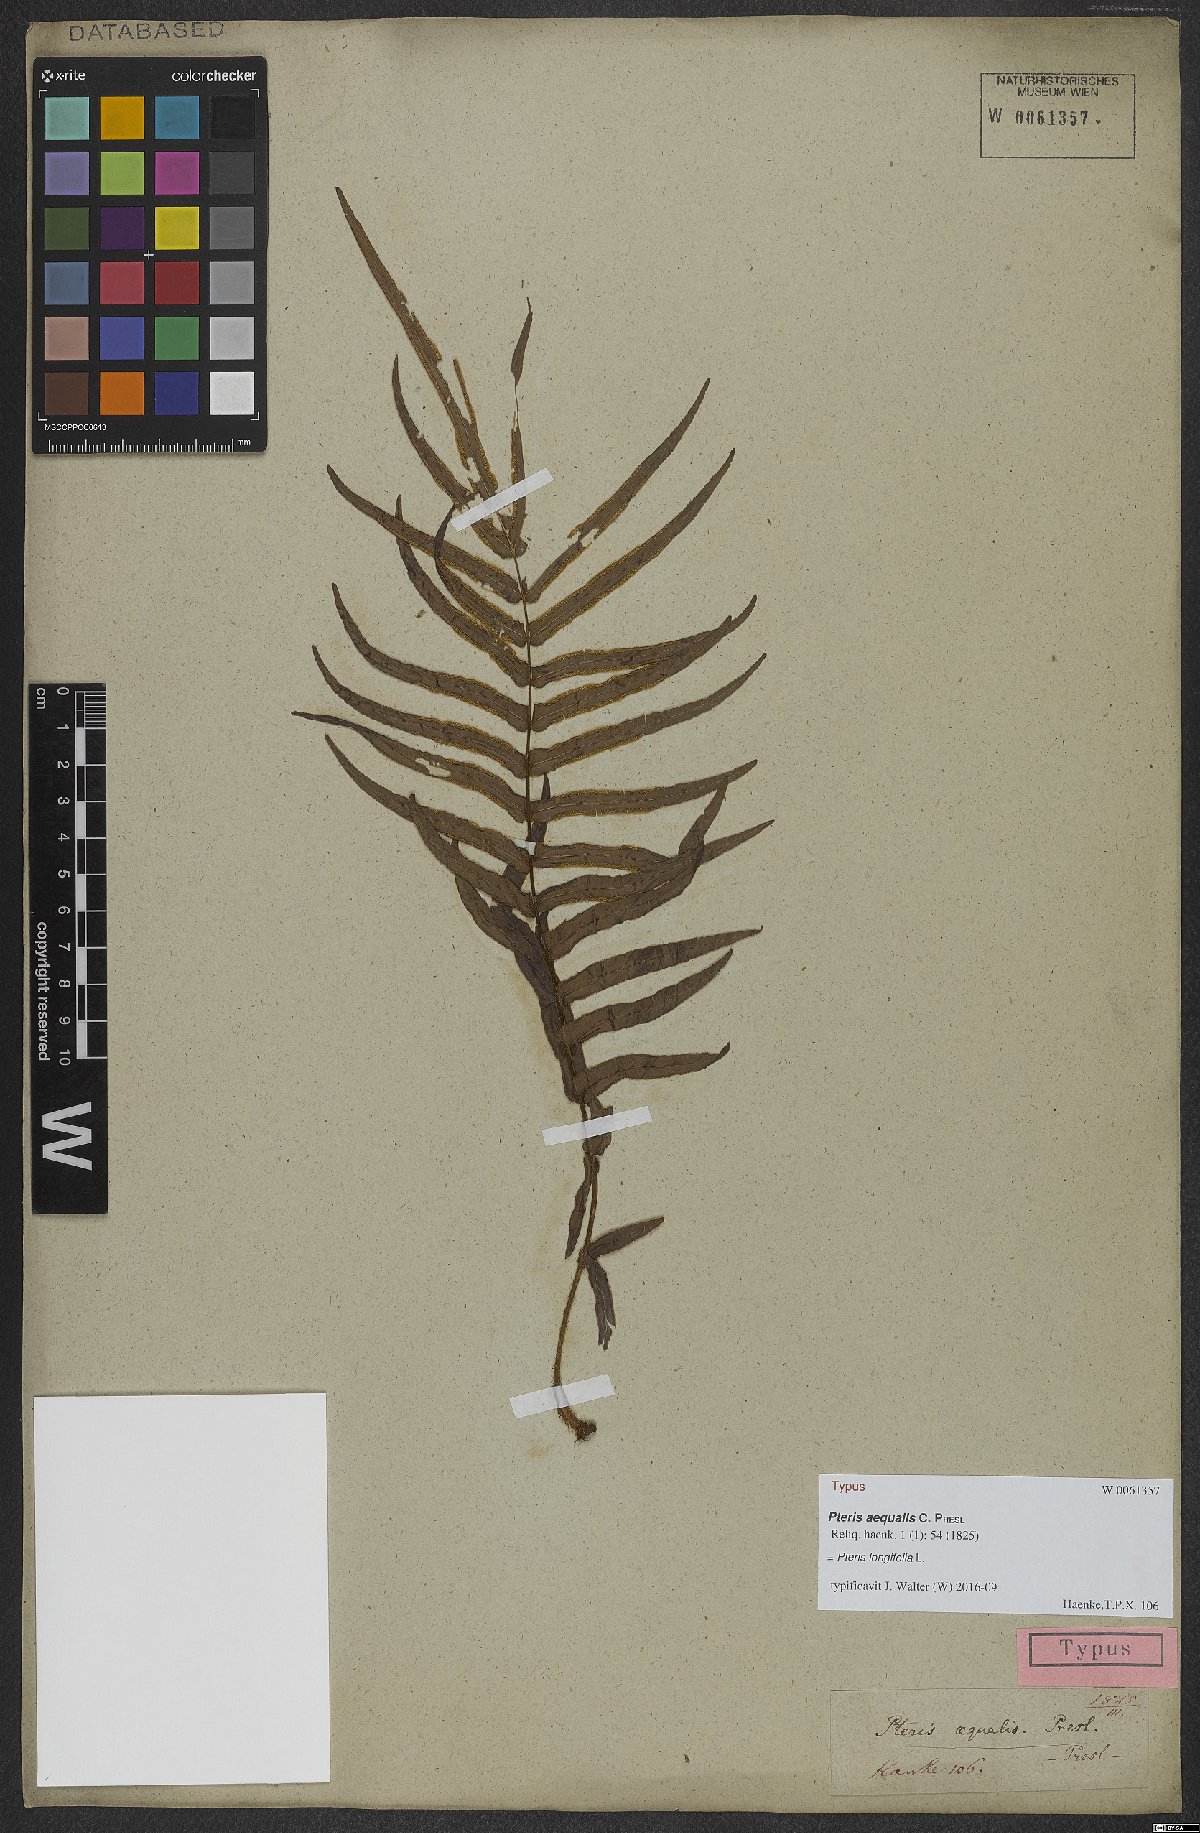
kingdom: Plantae
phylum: Tracheophyta
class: Polypodiopsida
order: Polypodiales
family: Pteridaceae
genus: Pteris
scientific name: Pteris longifolia
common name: Longleaf brake
